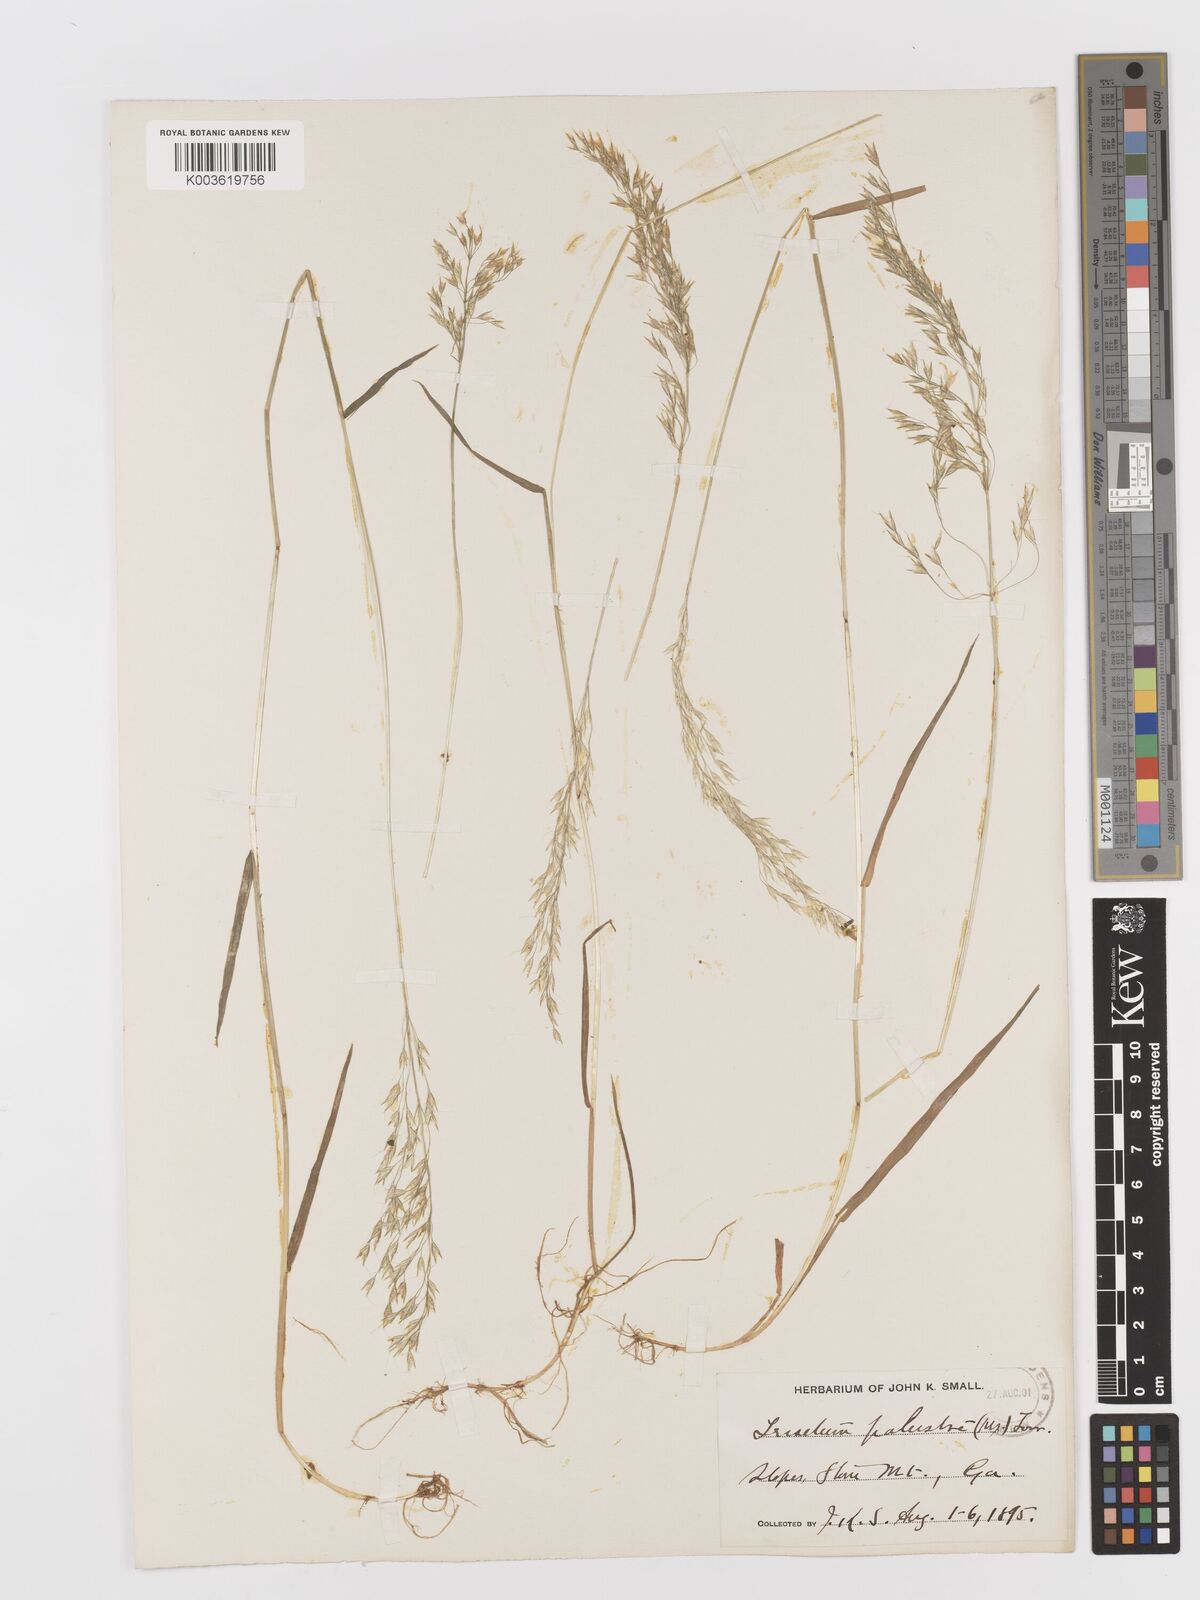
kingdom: Plantae
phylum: Tracheophyta
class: Liliopsida
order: Poales
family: Poaceae
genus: Sphenopholis
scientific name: Sphenopholis pensylvanica
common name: Swamp oats
